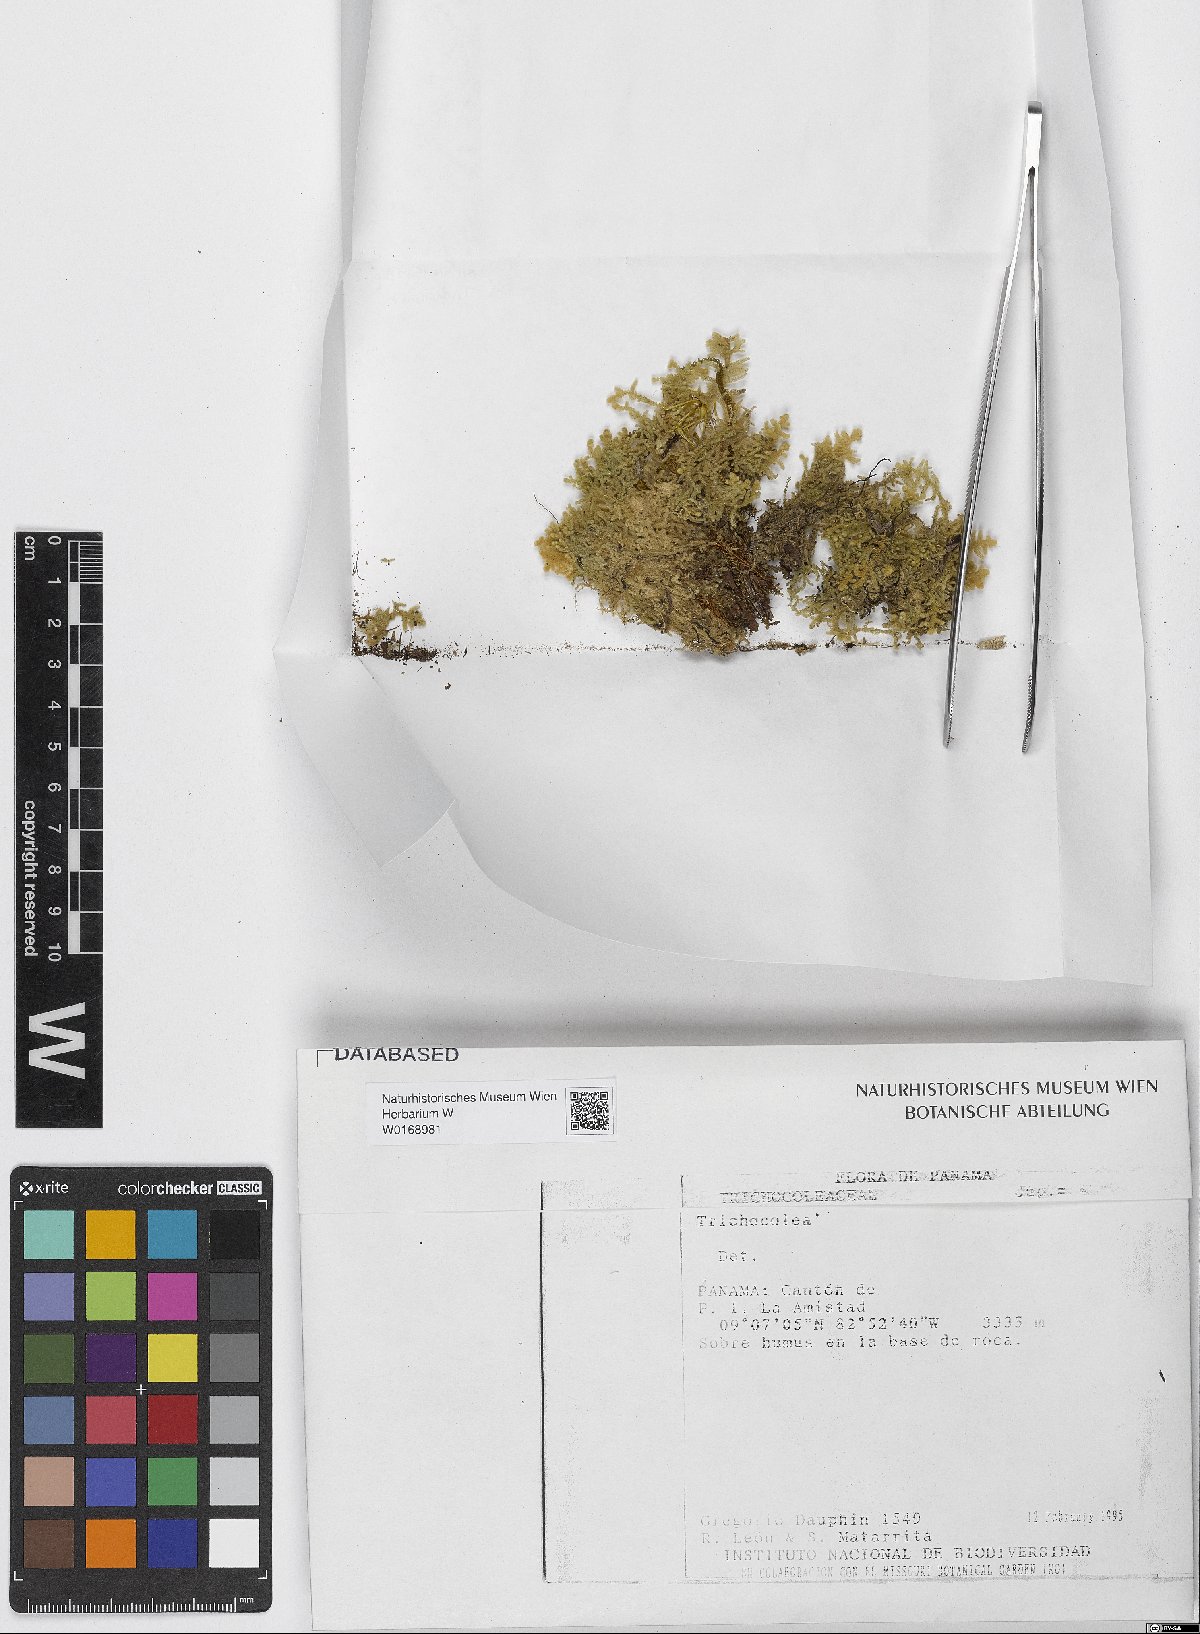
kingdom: Plantae
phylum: Marchantiophyta
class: Jungermanniopsida
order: Jungermanniales
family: Trichocoleaceae
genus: Trichocolea
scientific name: Trichocolea
